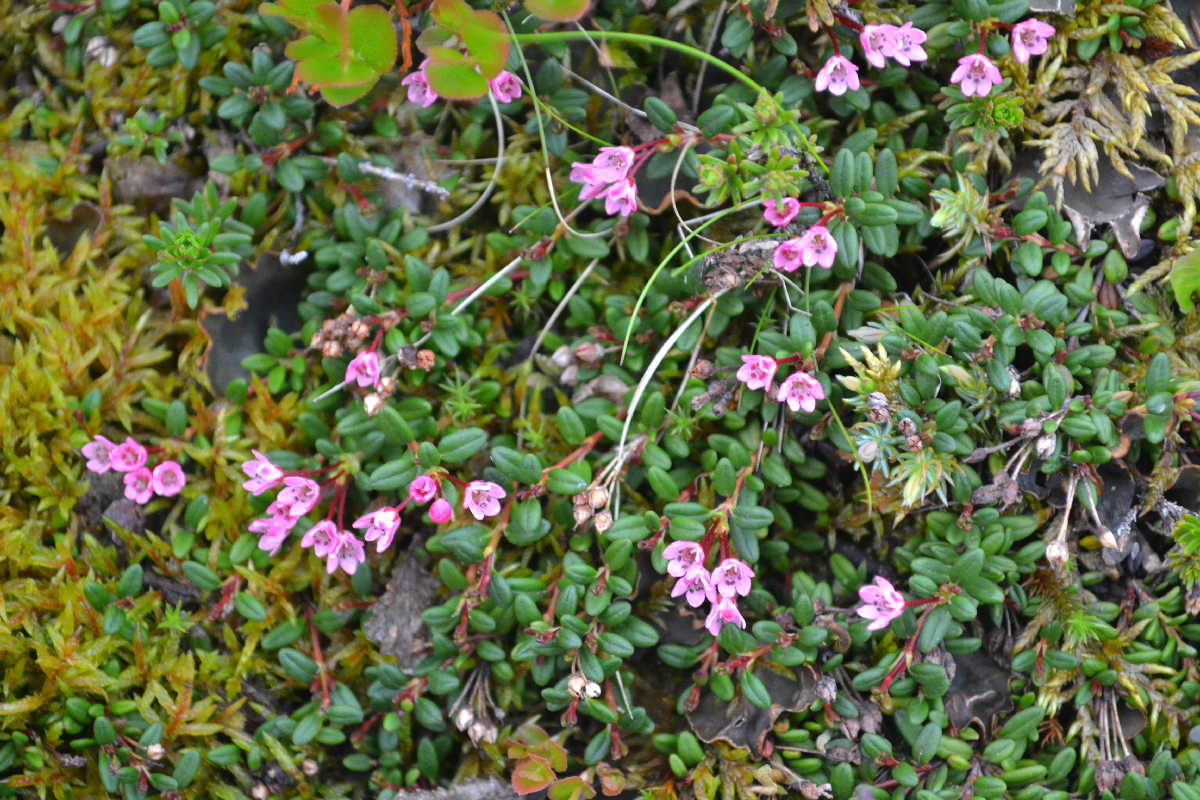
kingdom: Plantae
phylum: Tracheophyta
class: Magnoliopsida
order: Ericales
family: Ericaceae
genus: Kalmia
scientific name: Kalmia procumbens
